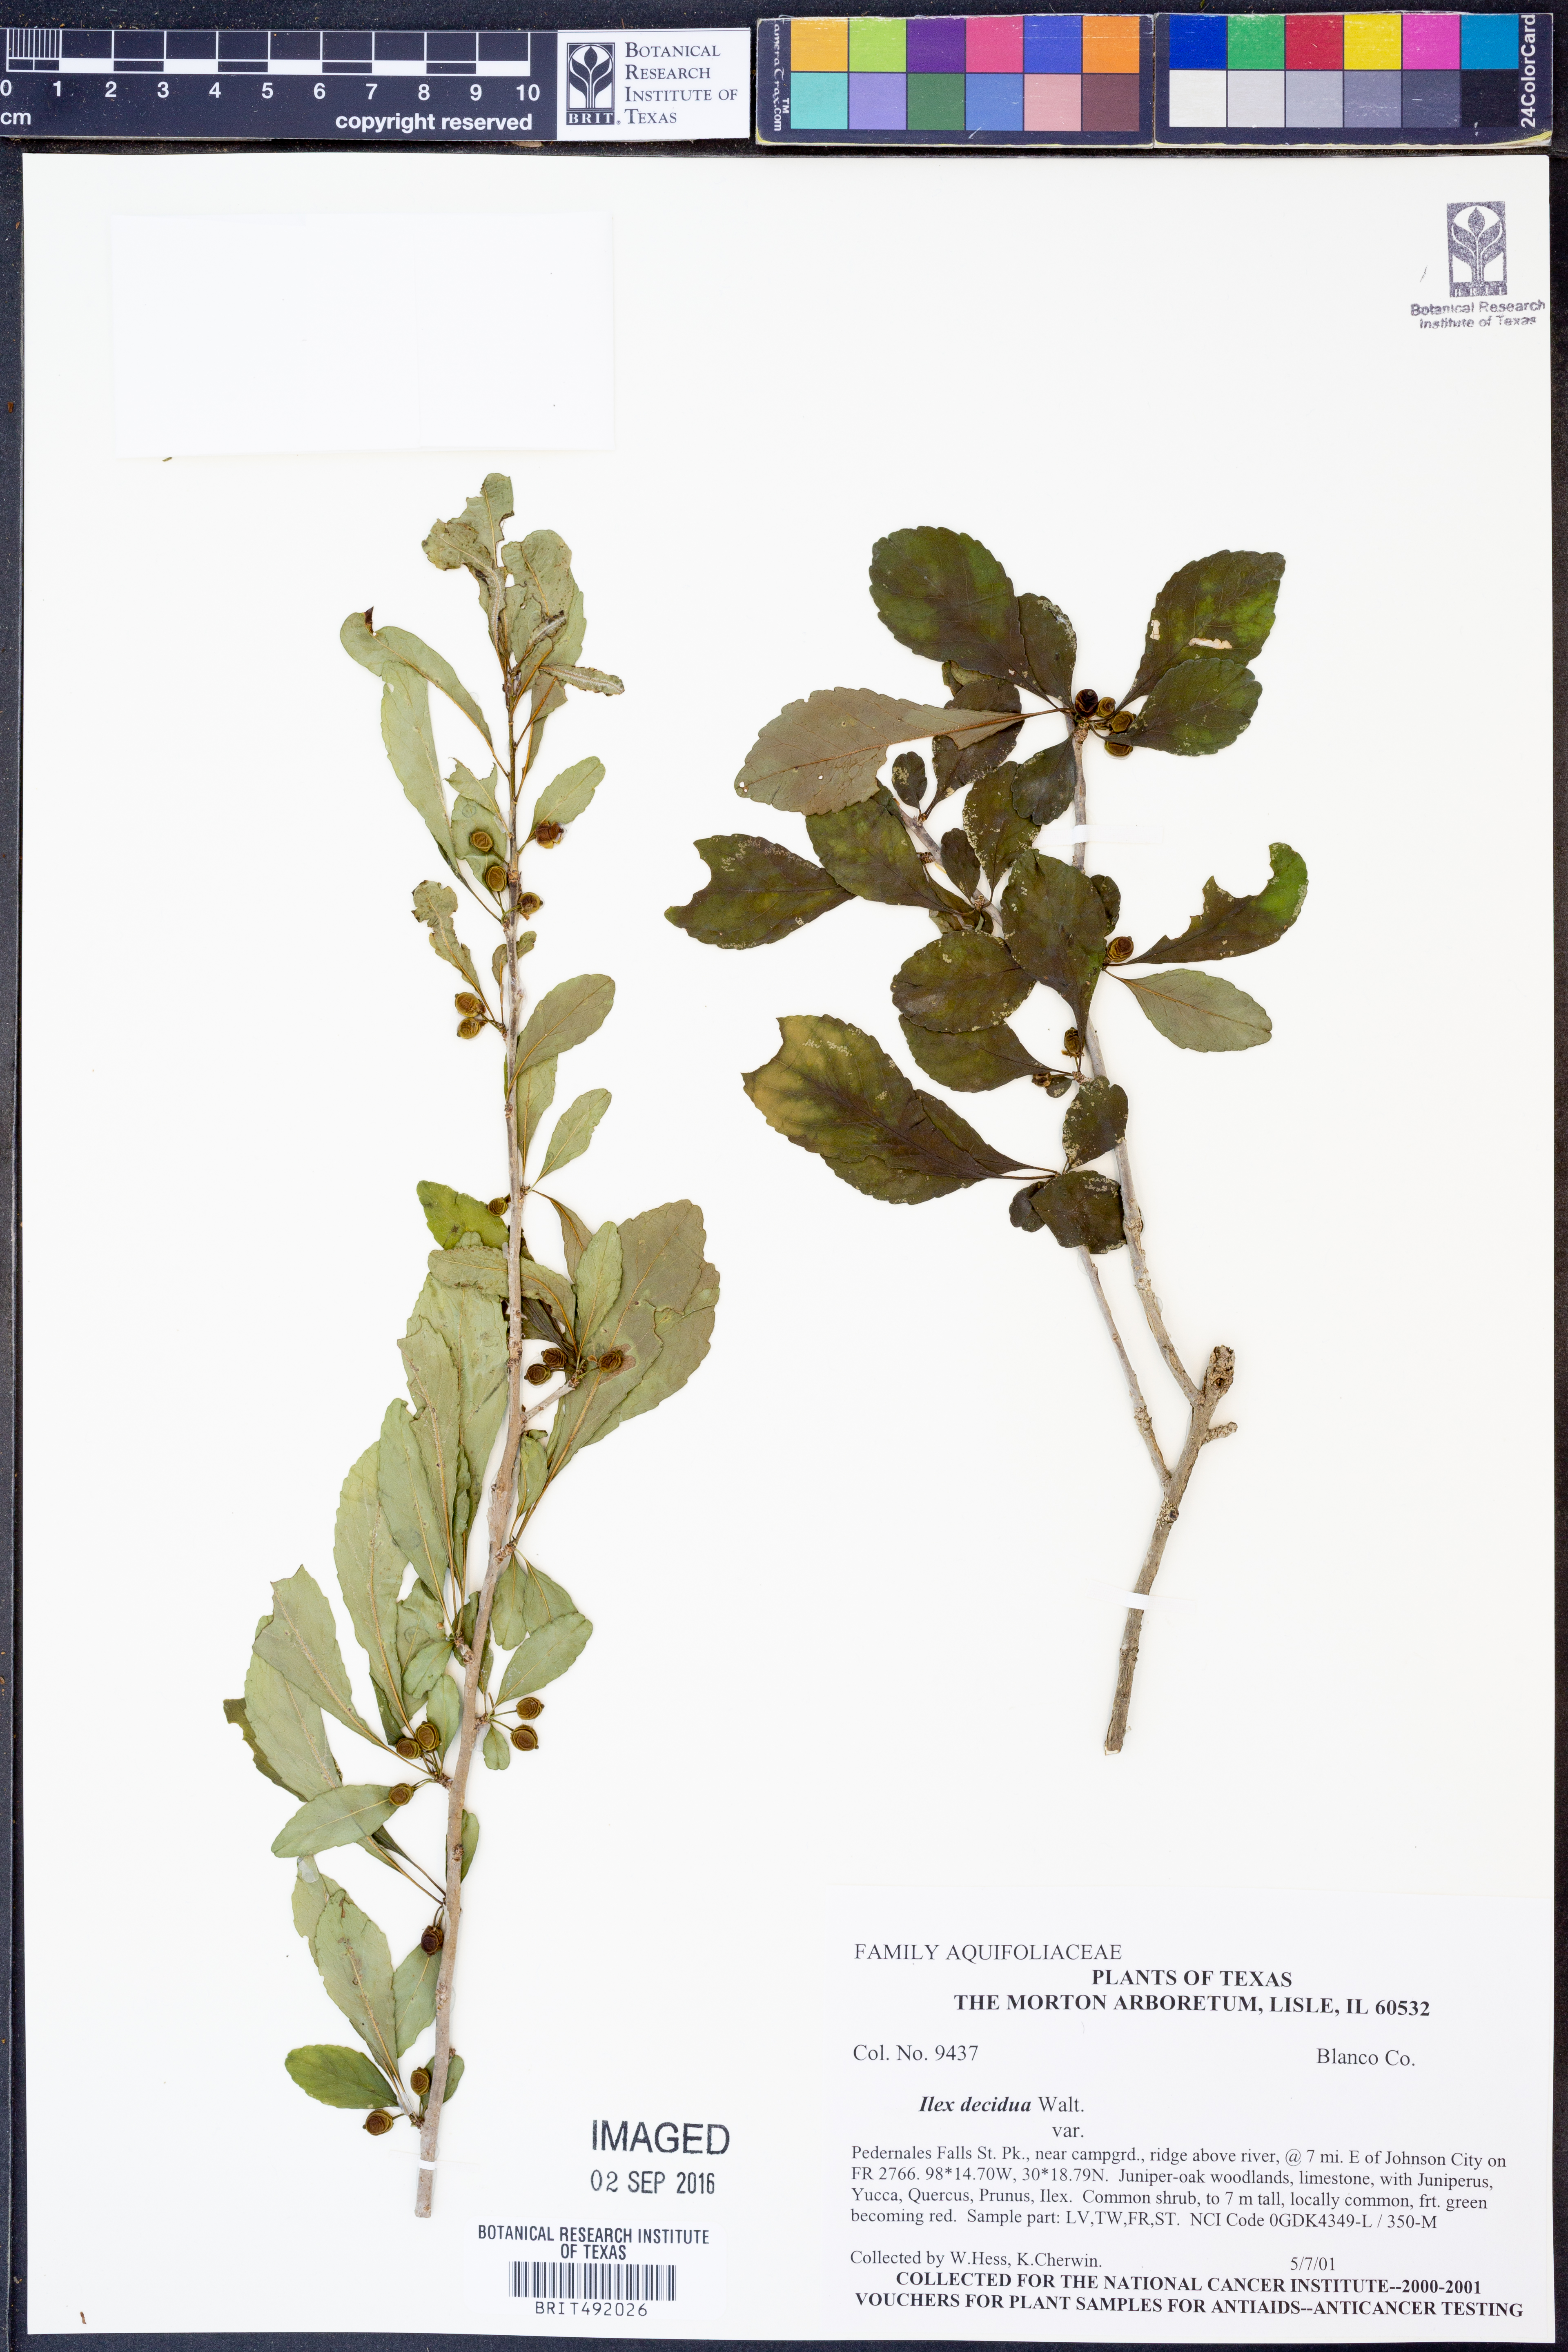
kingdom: Plantae
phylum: Tracheophyta
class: Magnoliopsida
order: Aquifoliales
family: Aquifoliaceae
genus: Ilex
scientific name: Ilex decidua
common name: Possum-haw
